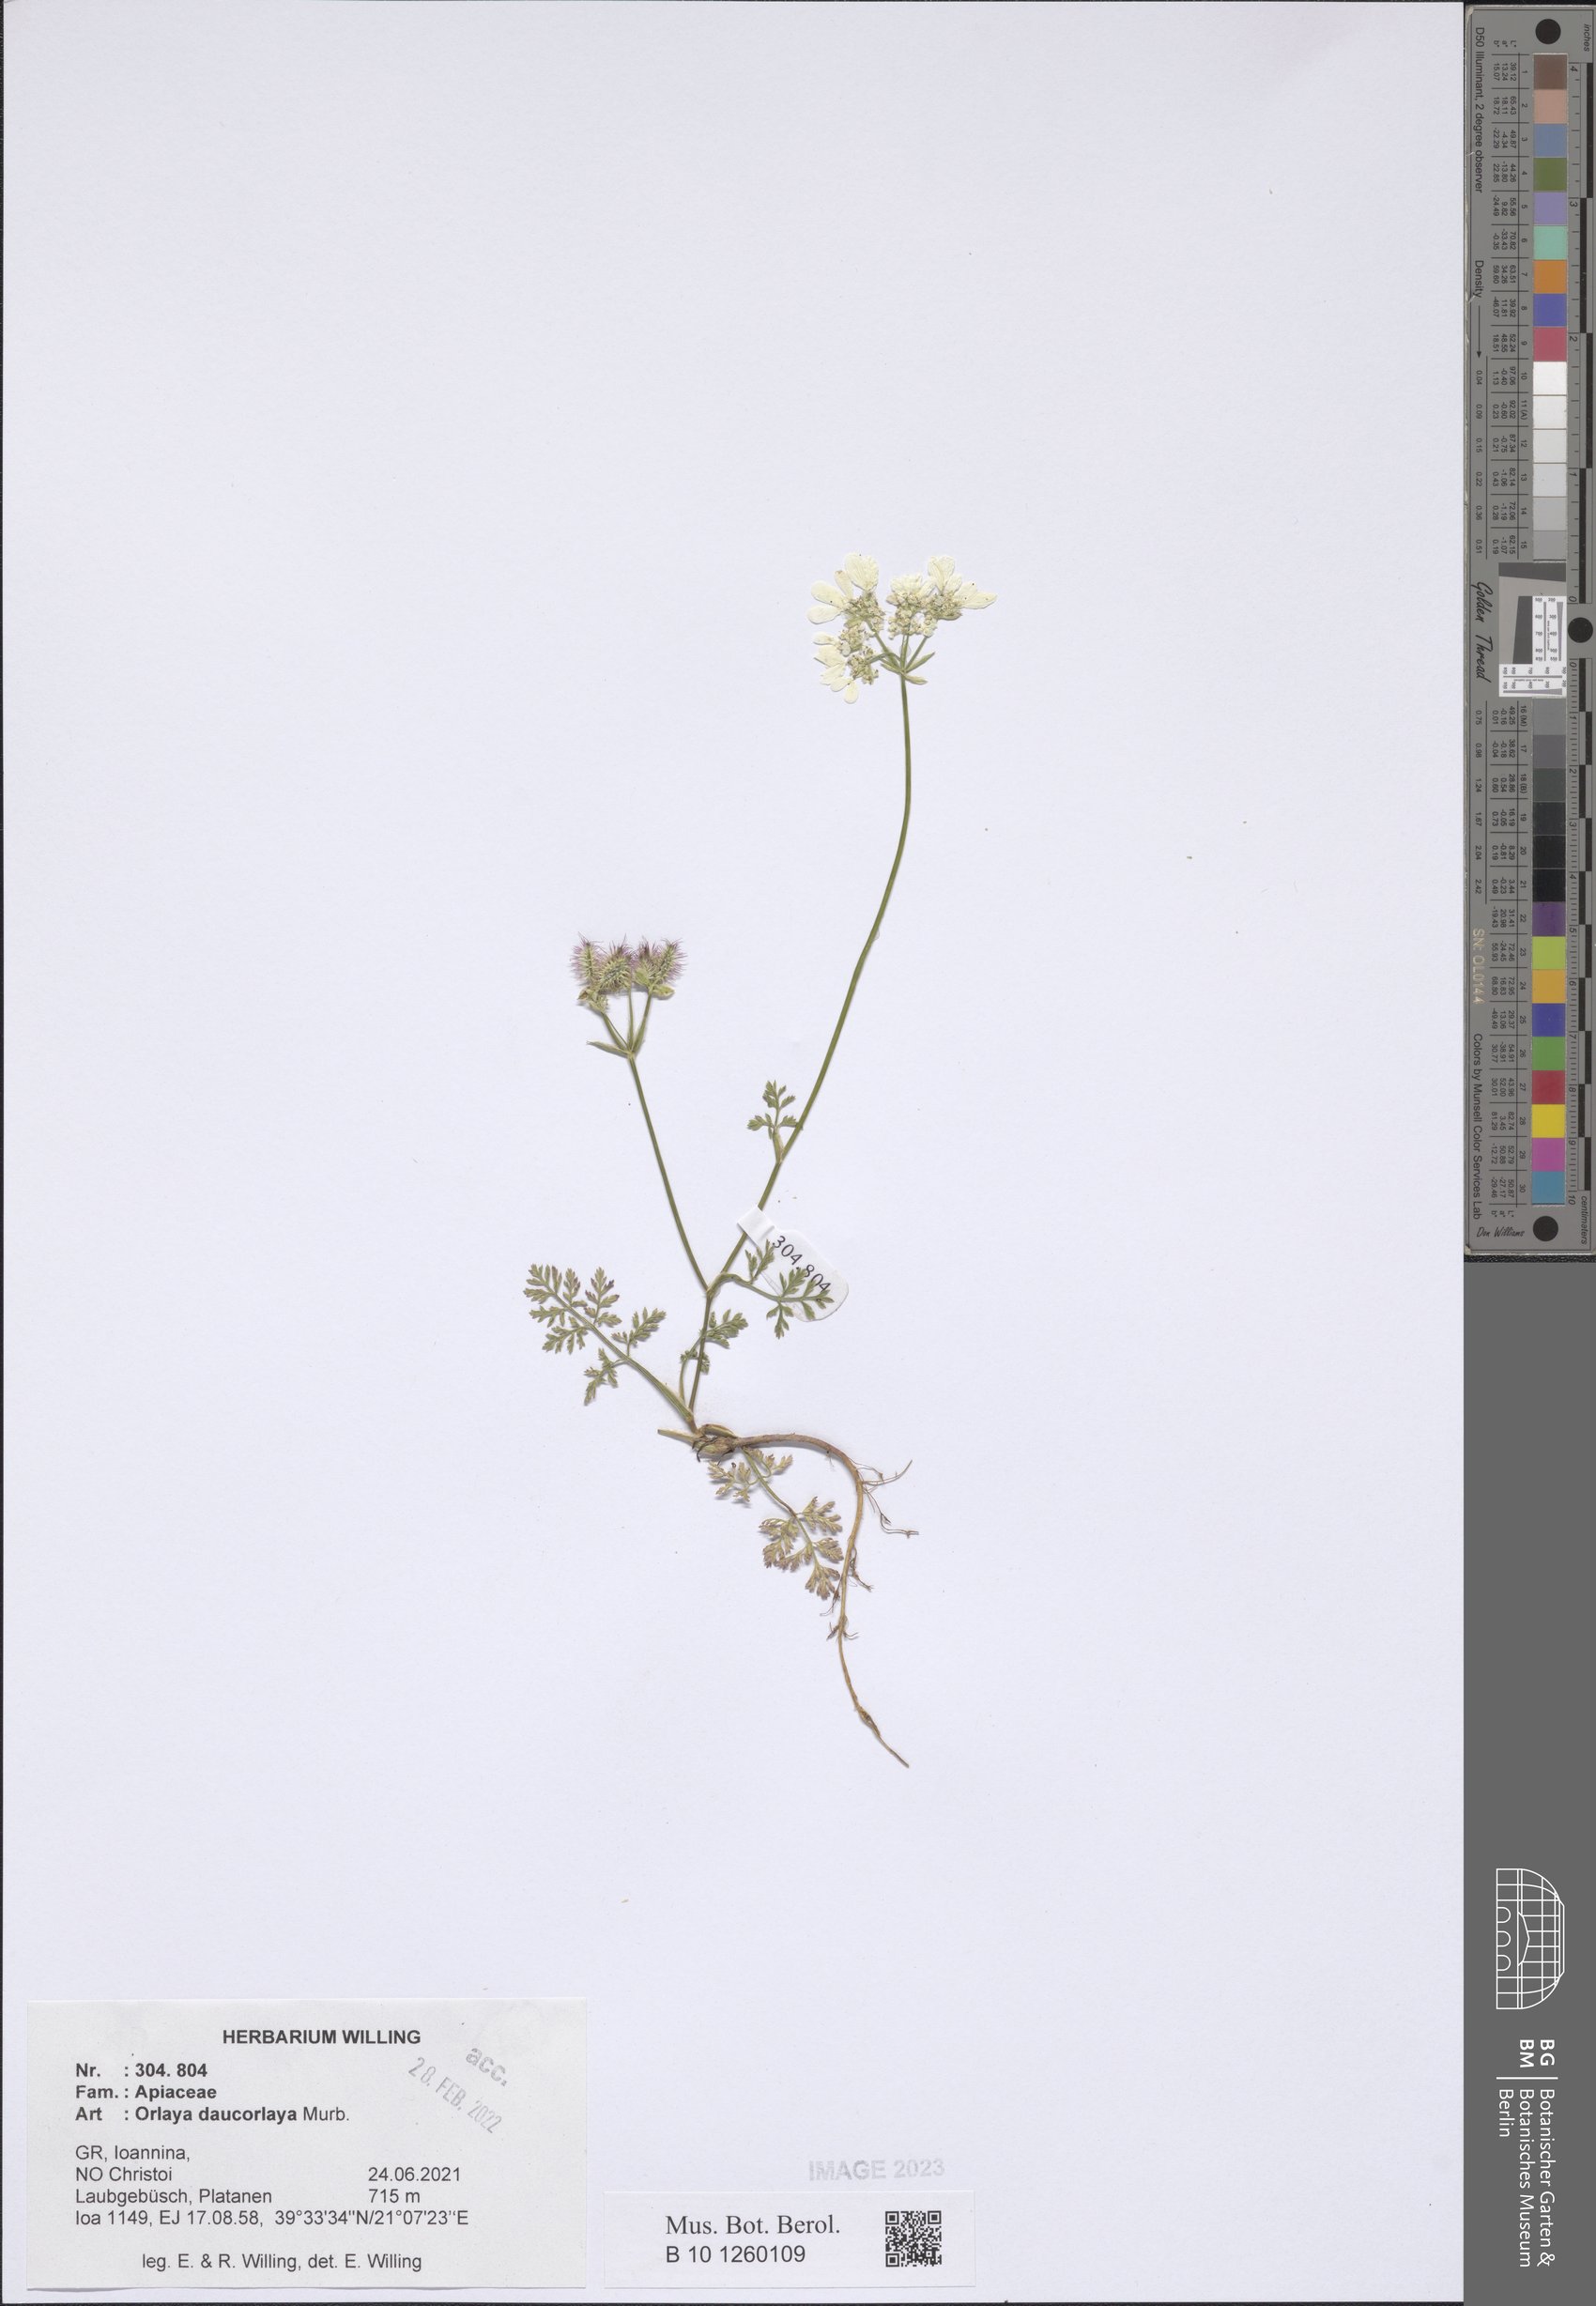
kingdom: Plantae
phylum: Tracheophyta
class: Magnoliopsida
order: Apiales
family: Apiaceae
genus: Orlaya
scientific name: Orlaya daucorlaya
